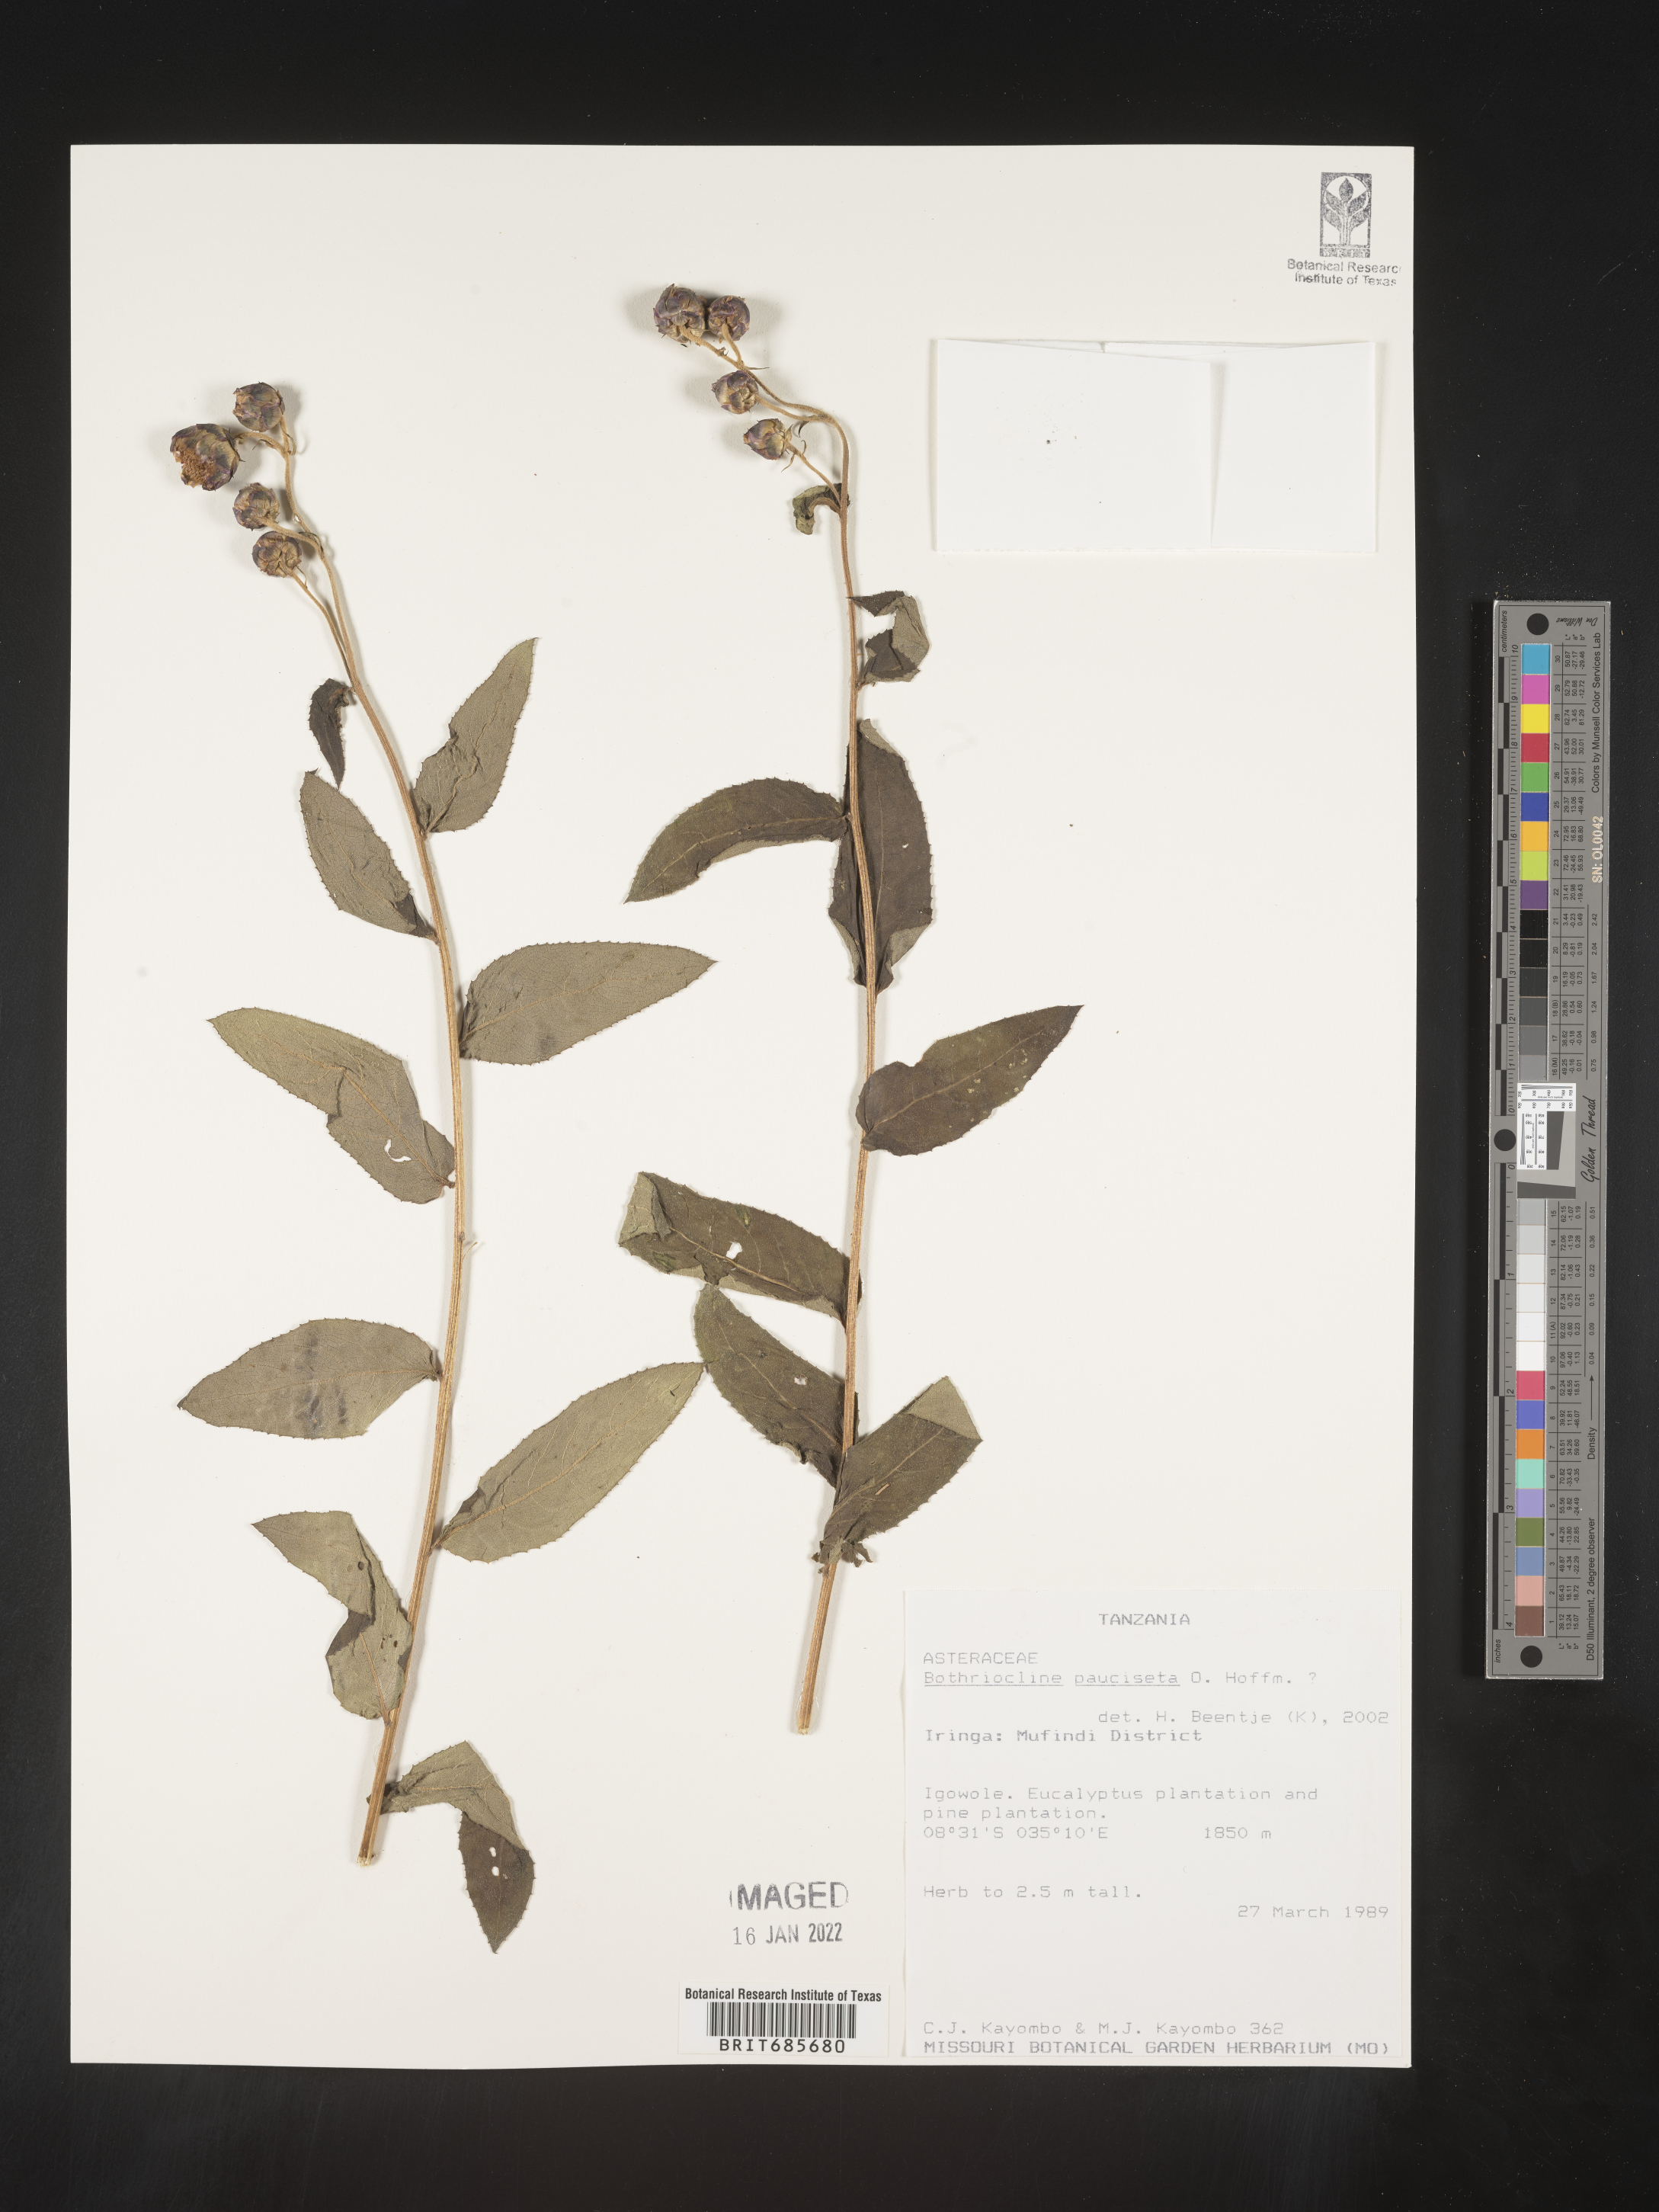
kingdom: Plantae
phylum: Tracheophyta
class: Magnoliopsida
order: Asterales
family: Asteraceae
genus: Bothriocline
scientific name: Bothriocline
